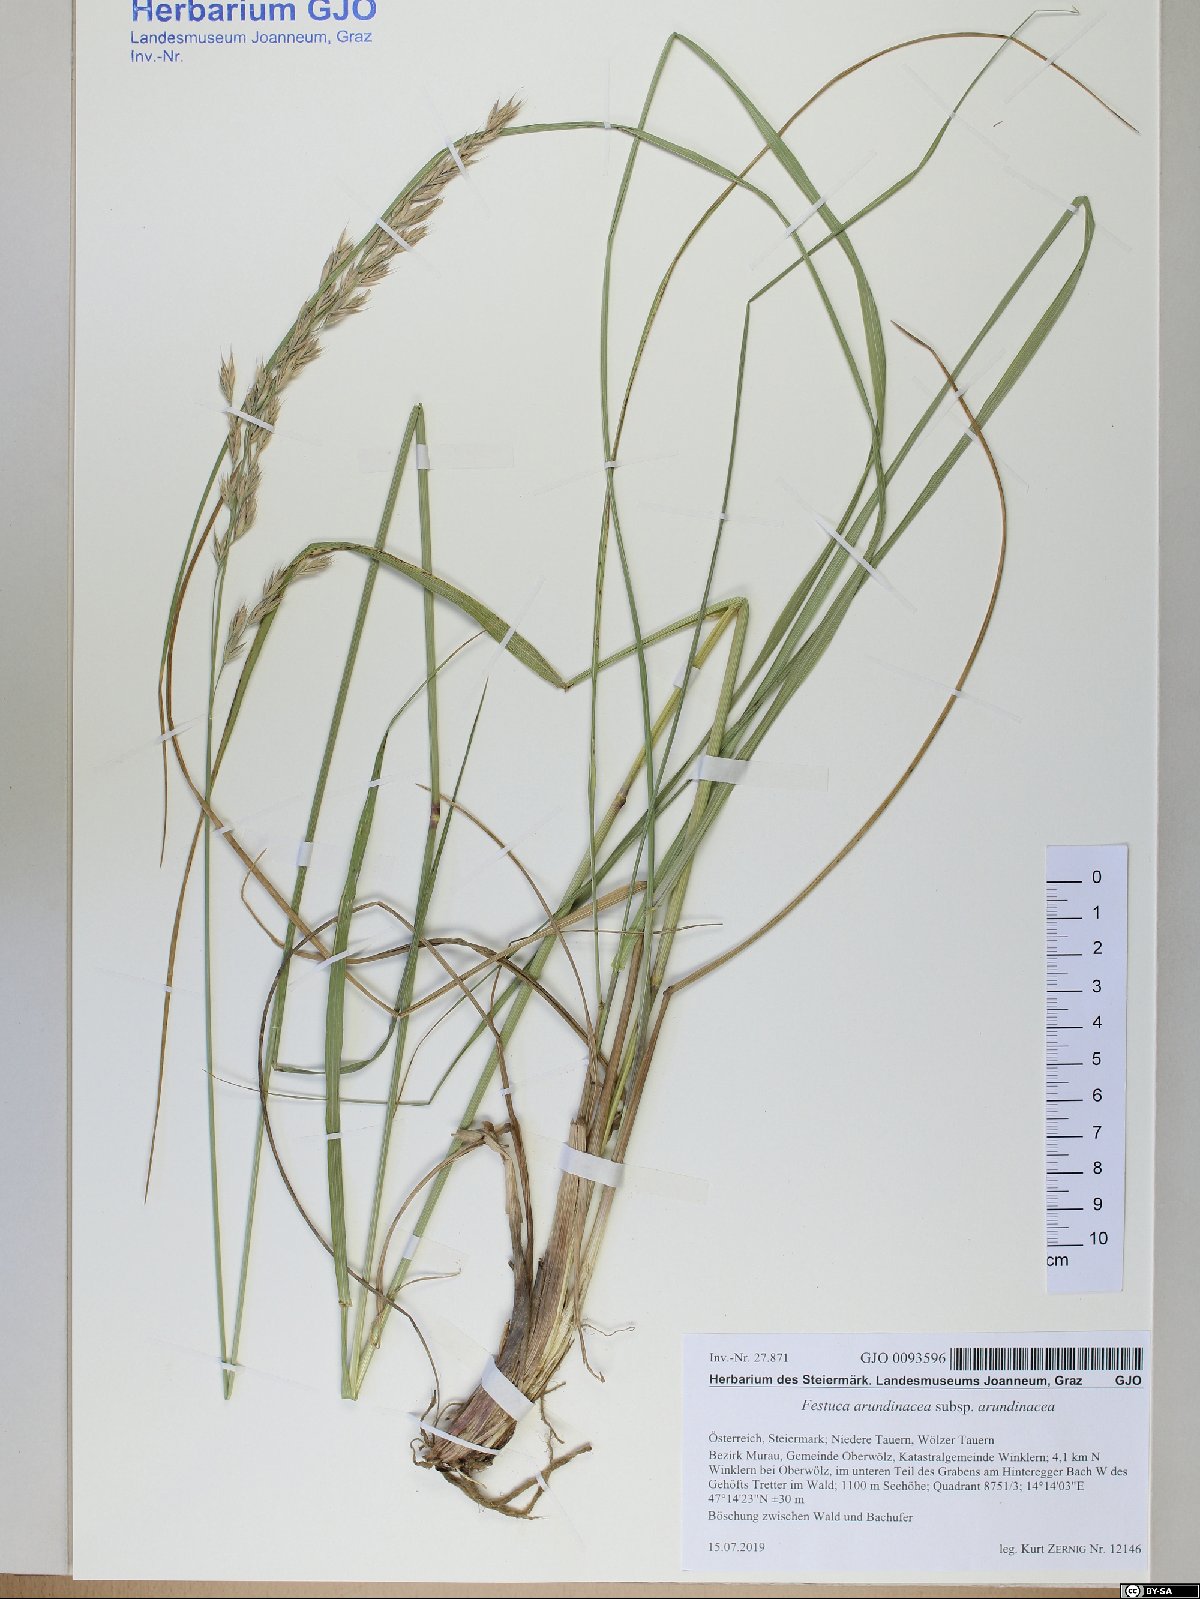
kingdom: Plantae
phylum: Tracheophyta
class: Liliopsida
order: Poales
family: Poaceae
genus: Lolium
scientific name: Lolium arundinaceum
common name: Reed fescue
